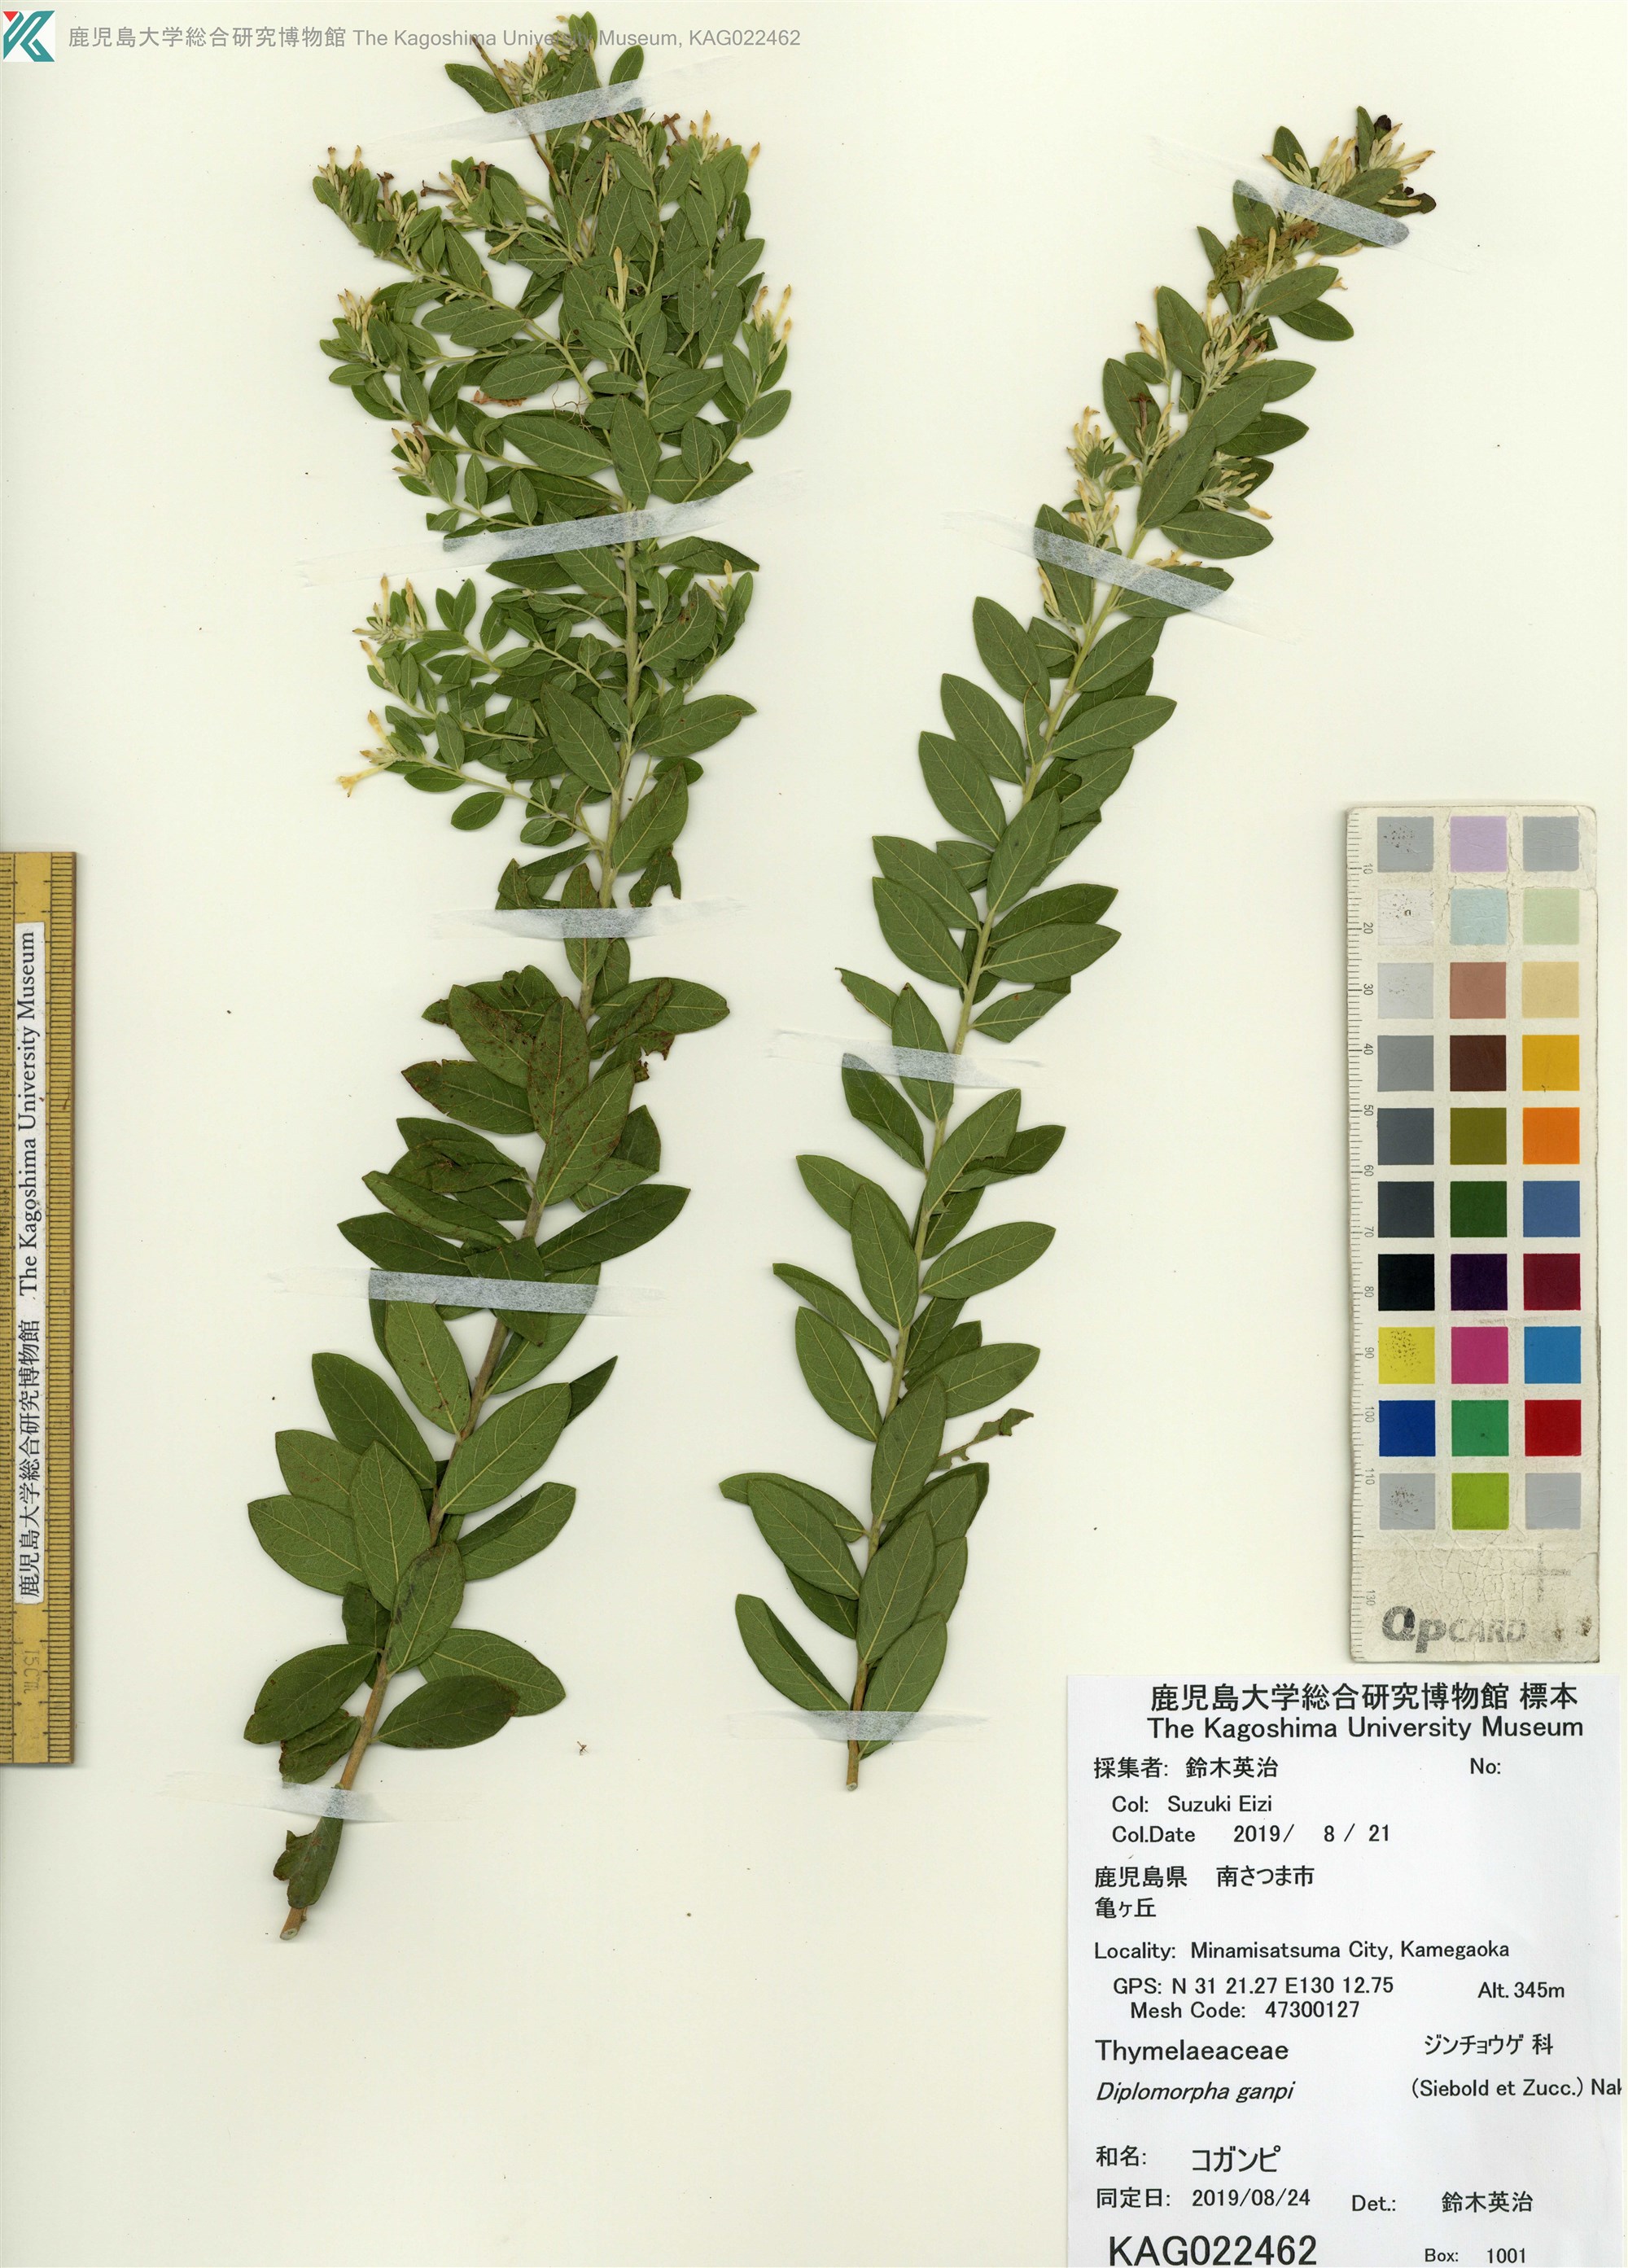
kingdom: Plantae
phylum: Tracheophyta
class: Magnoliopsida
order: Malvales
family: Thymelaeaceae
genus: Wikstroemia
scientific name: Wikstroemia ganpi
